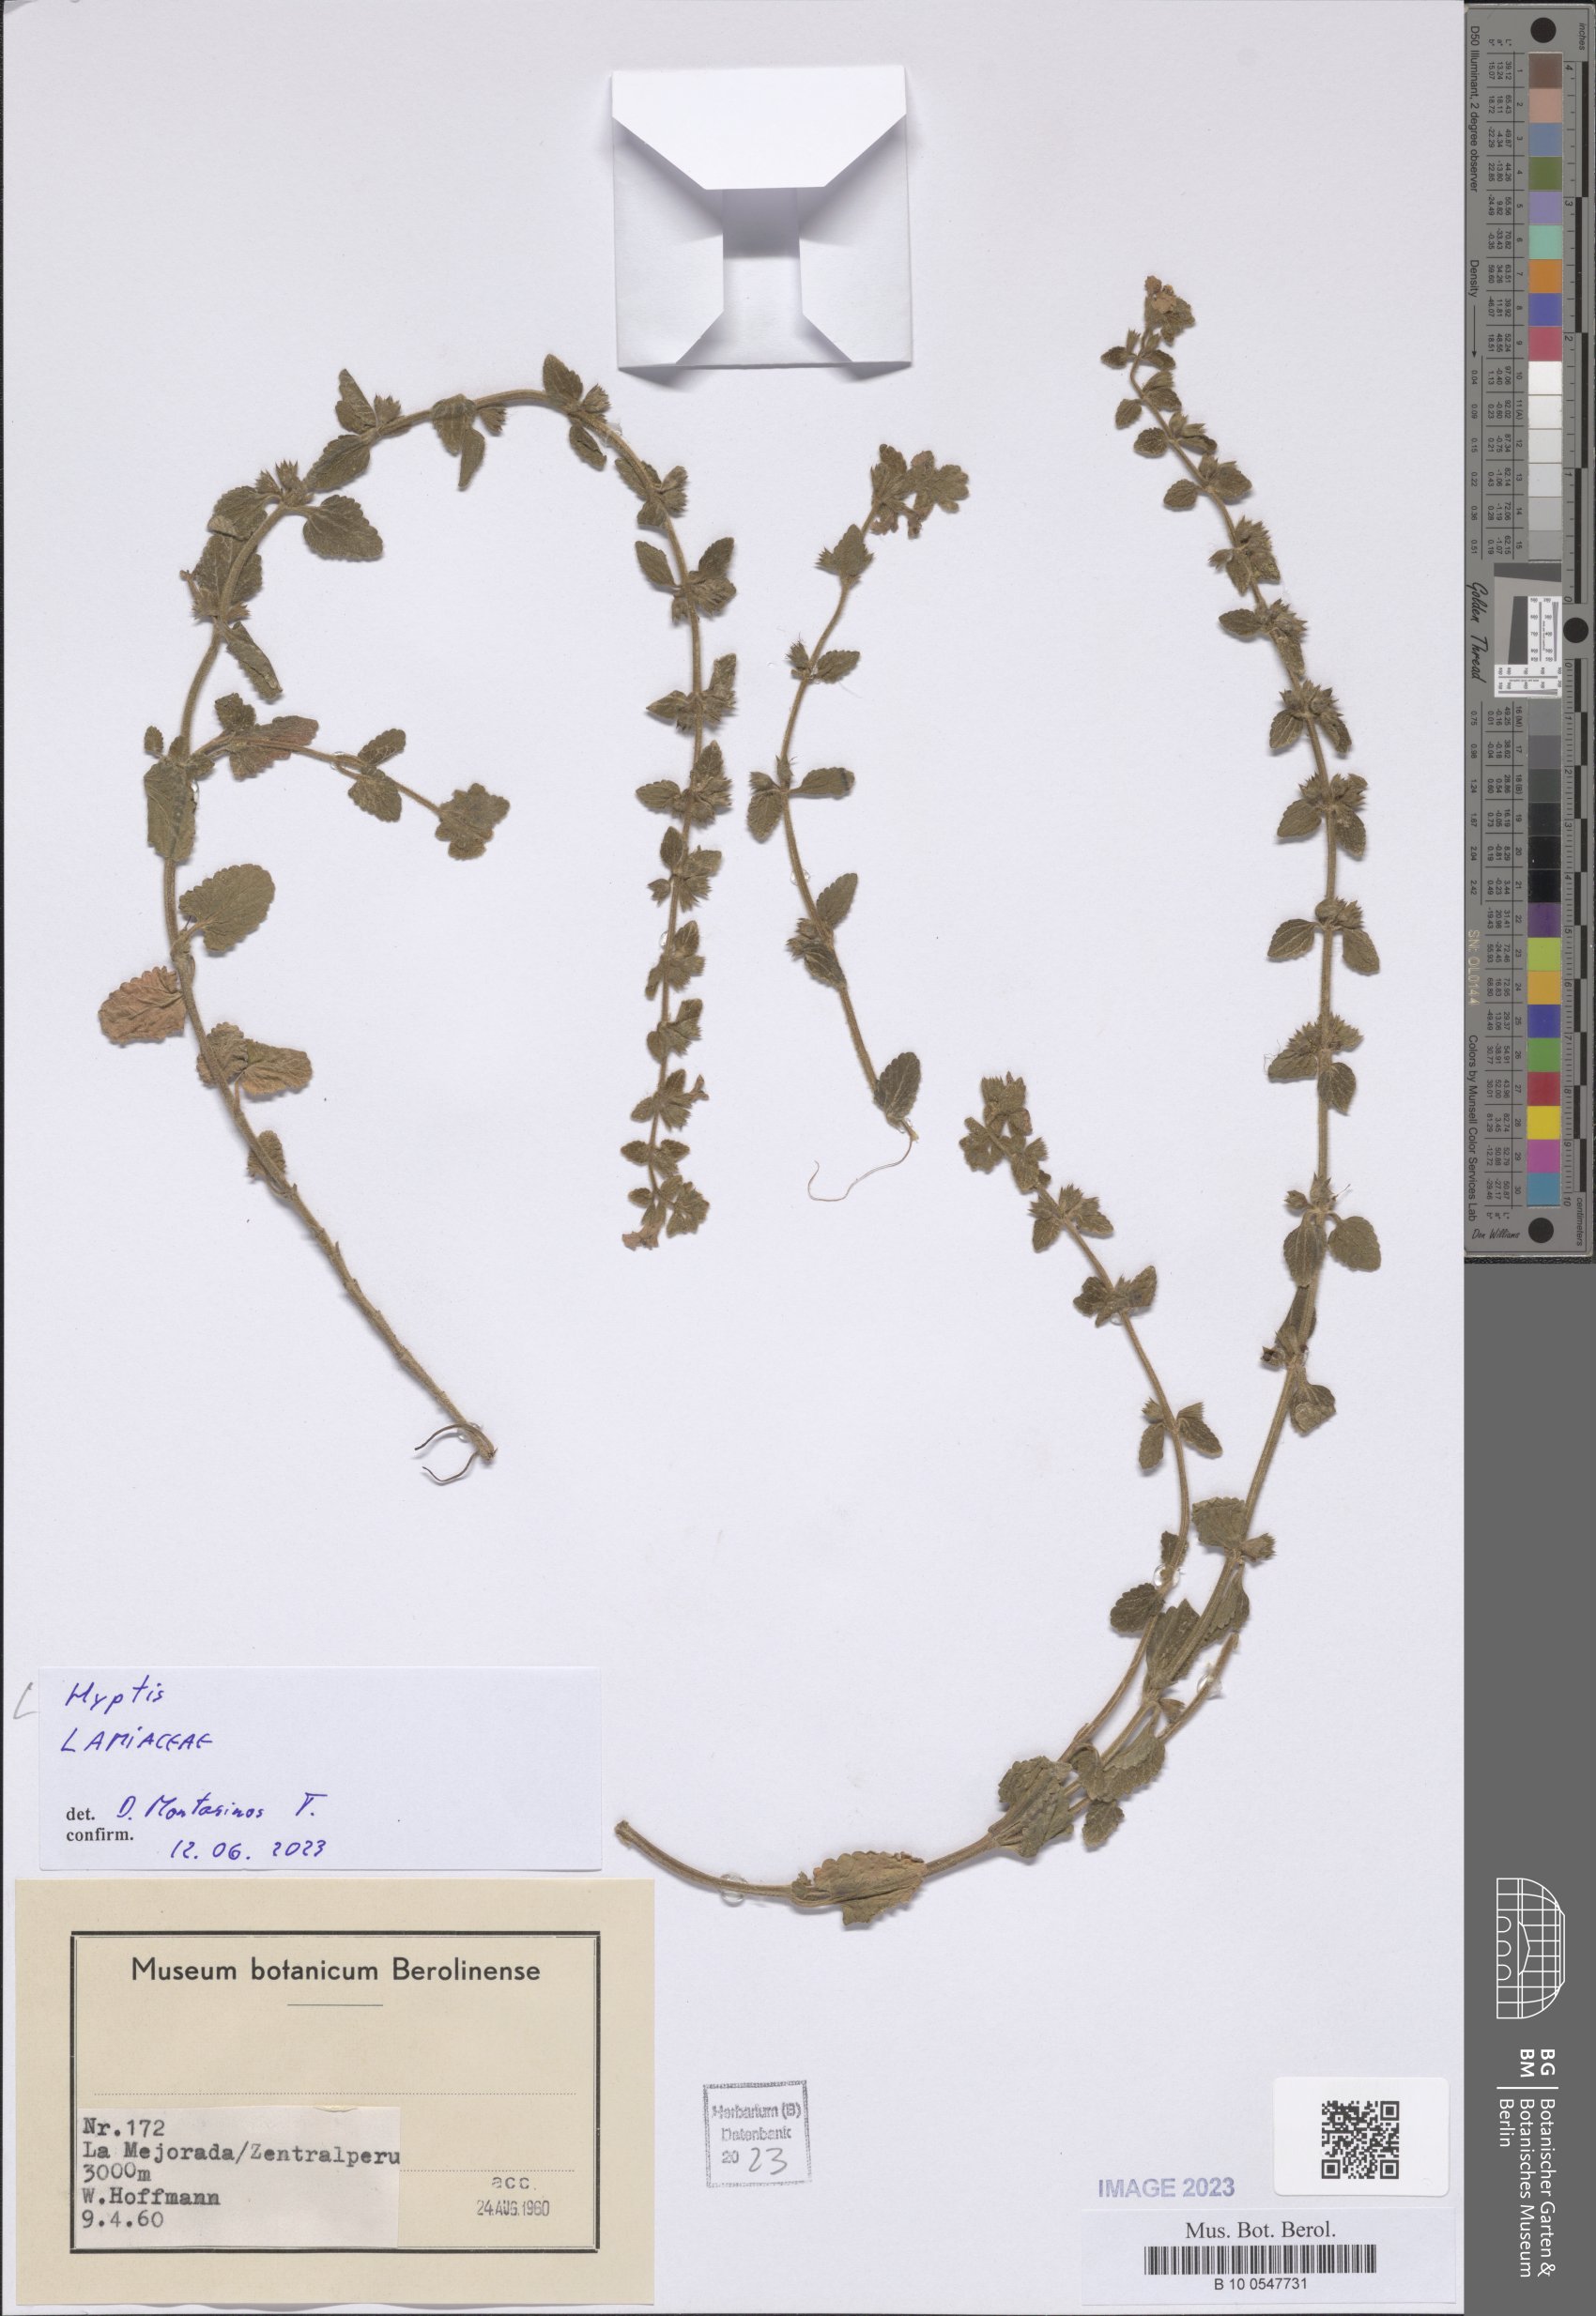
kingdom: Plantae
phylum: Tracheophyta
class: Magnoliopsida
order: Lamiales
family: Lamiaceae
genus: Hyptis
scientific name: Hyptis
